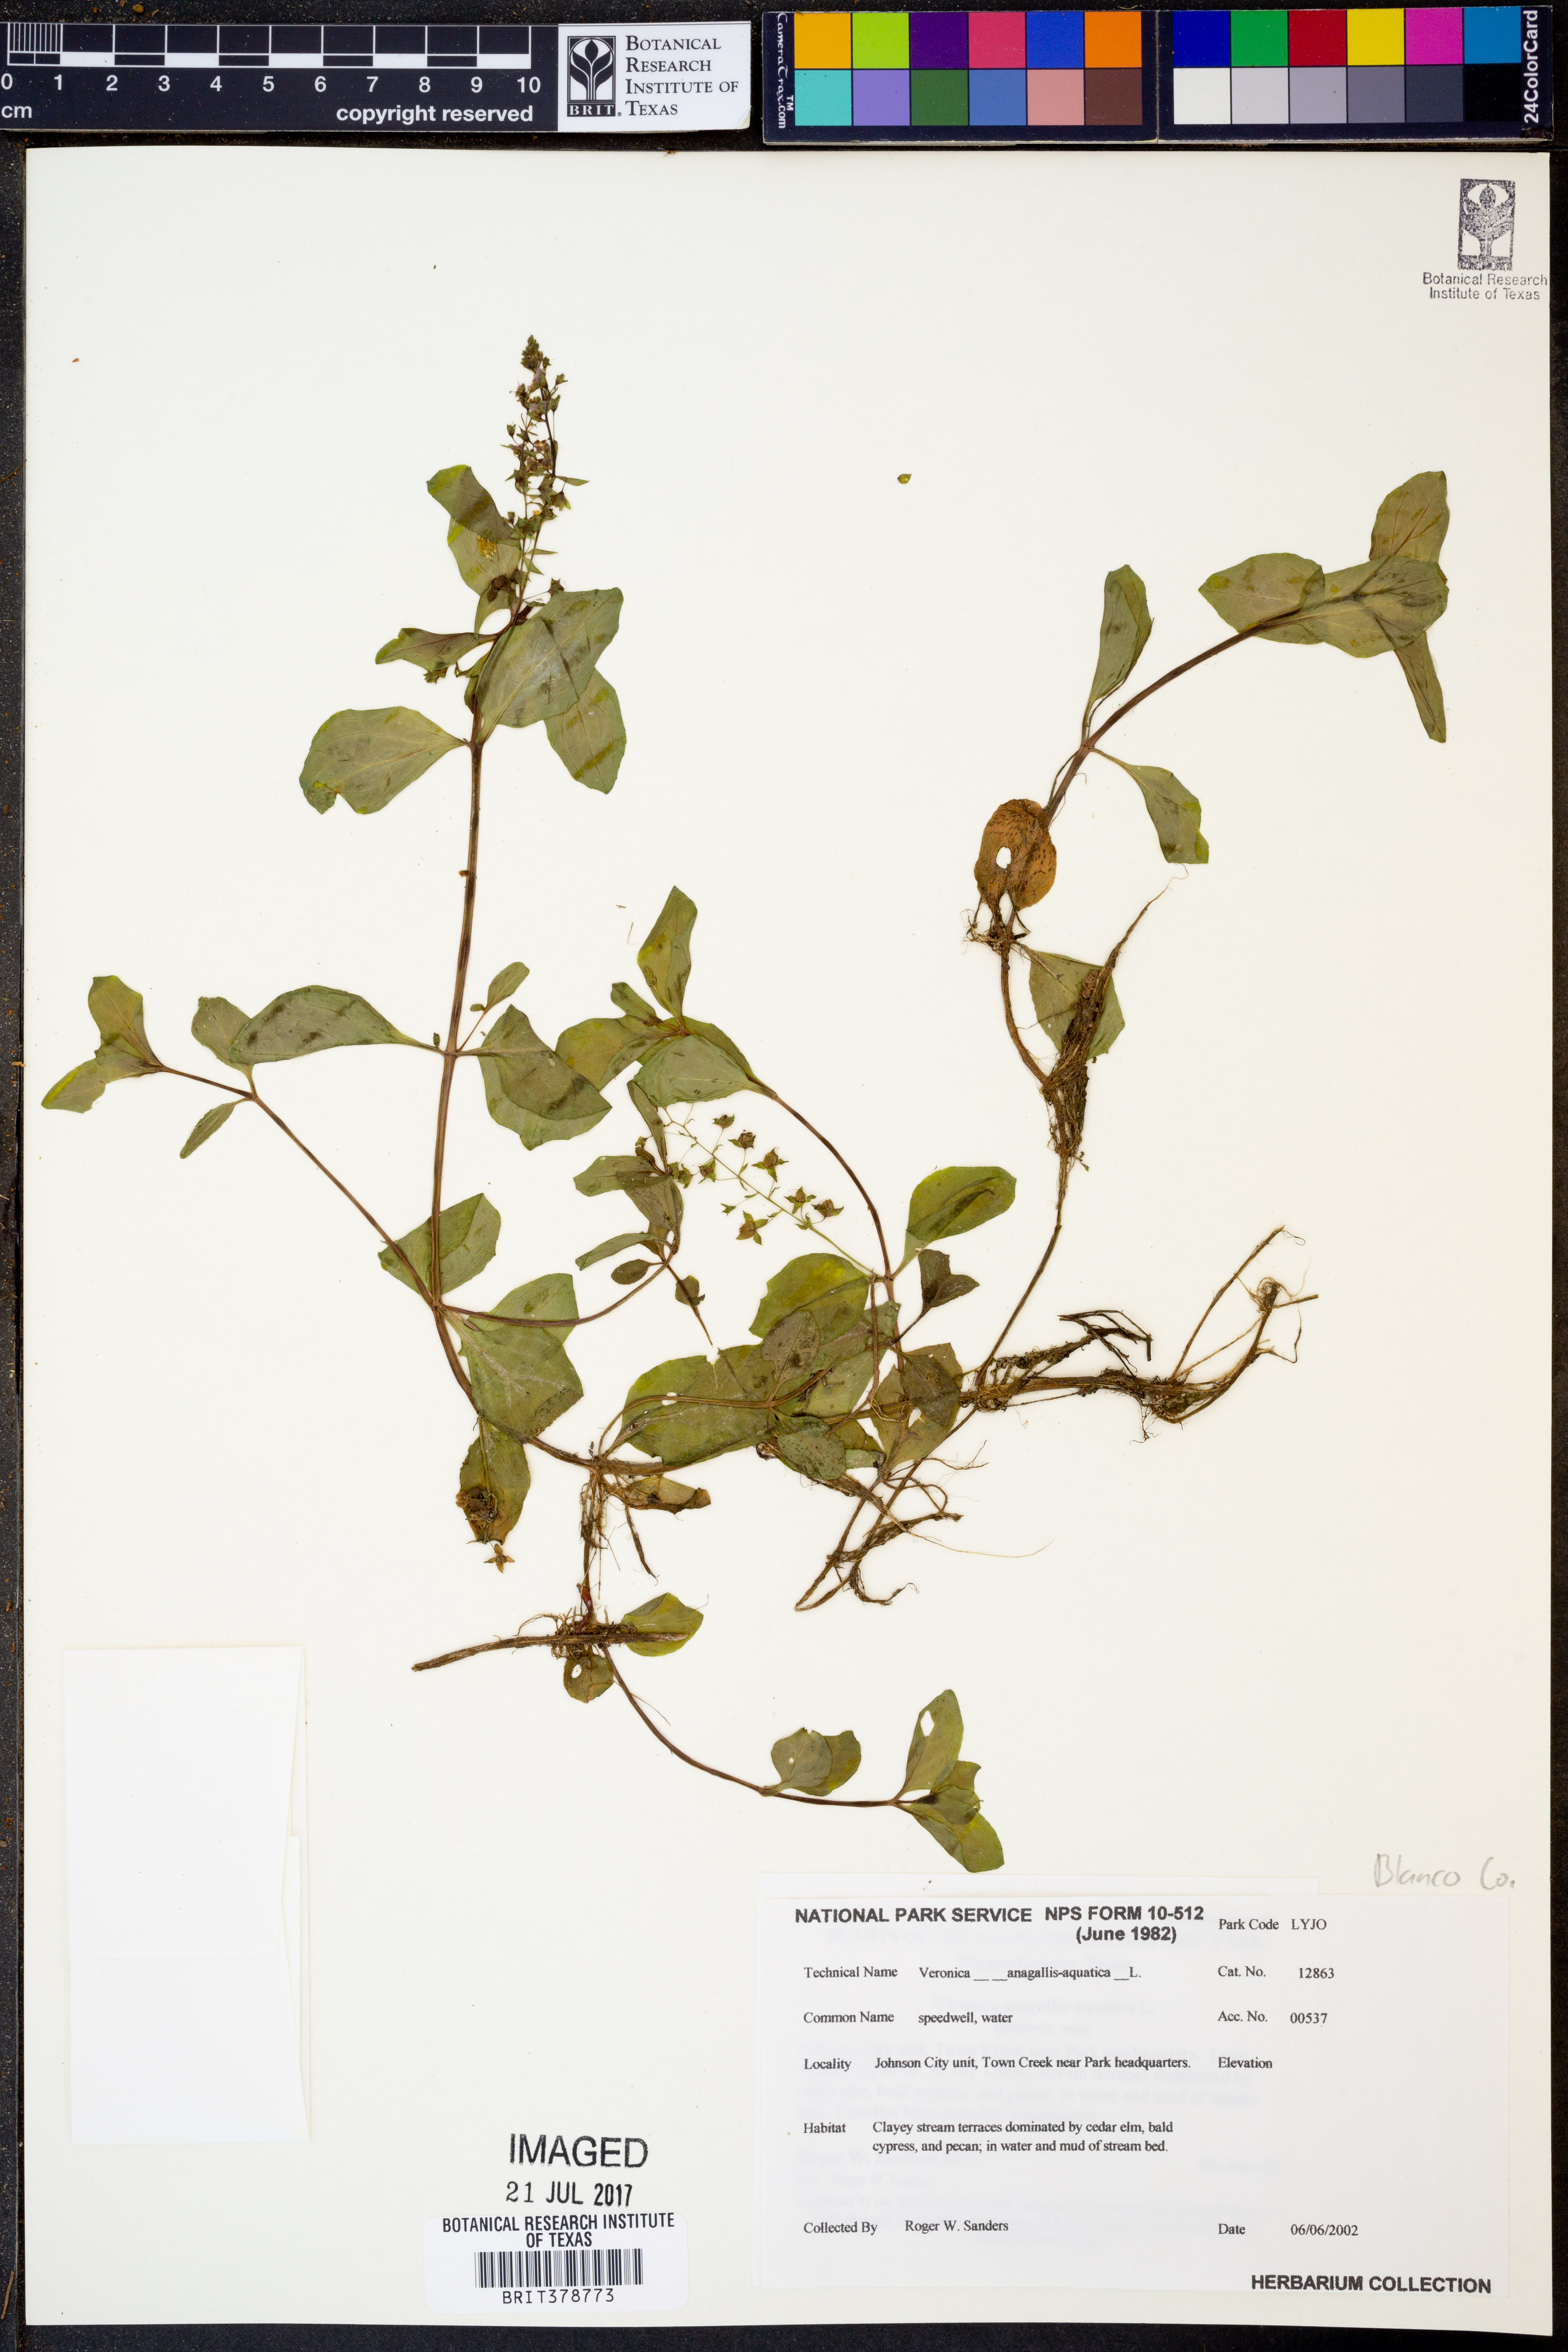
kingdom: Plantae
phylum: Tracheophyta
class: Magnoliopsida
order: Lamiales
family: Plantaginaceae
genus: Veronica
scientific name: Veronica anagallis-aquatica
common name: Water speedwell
